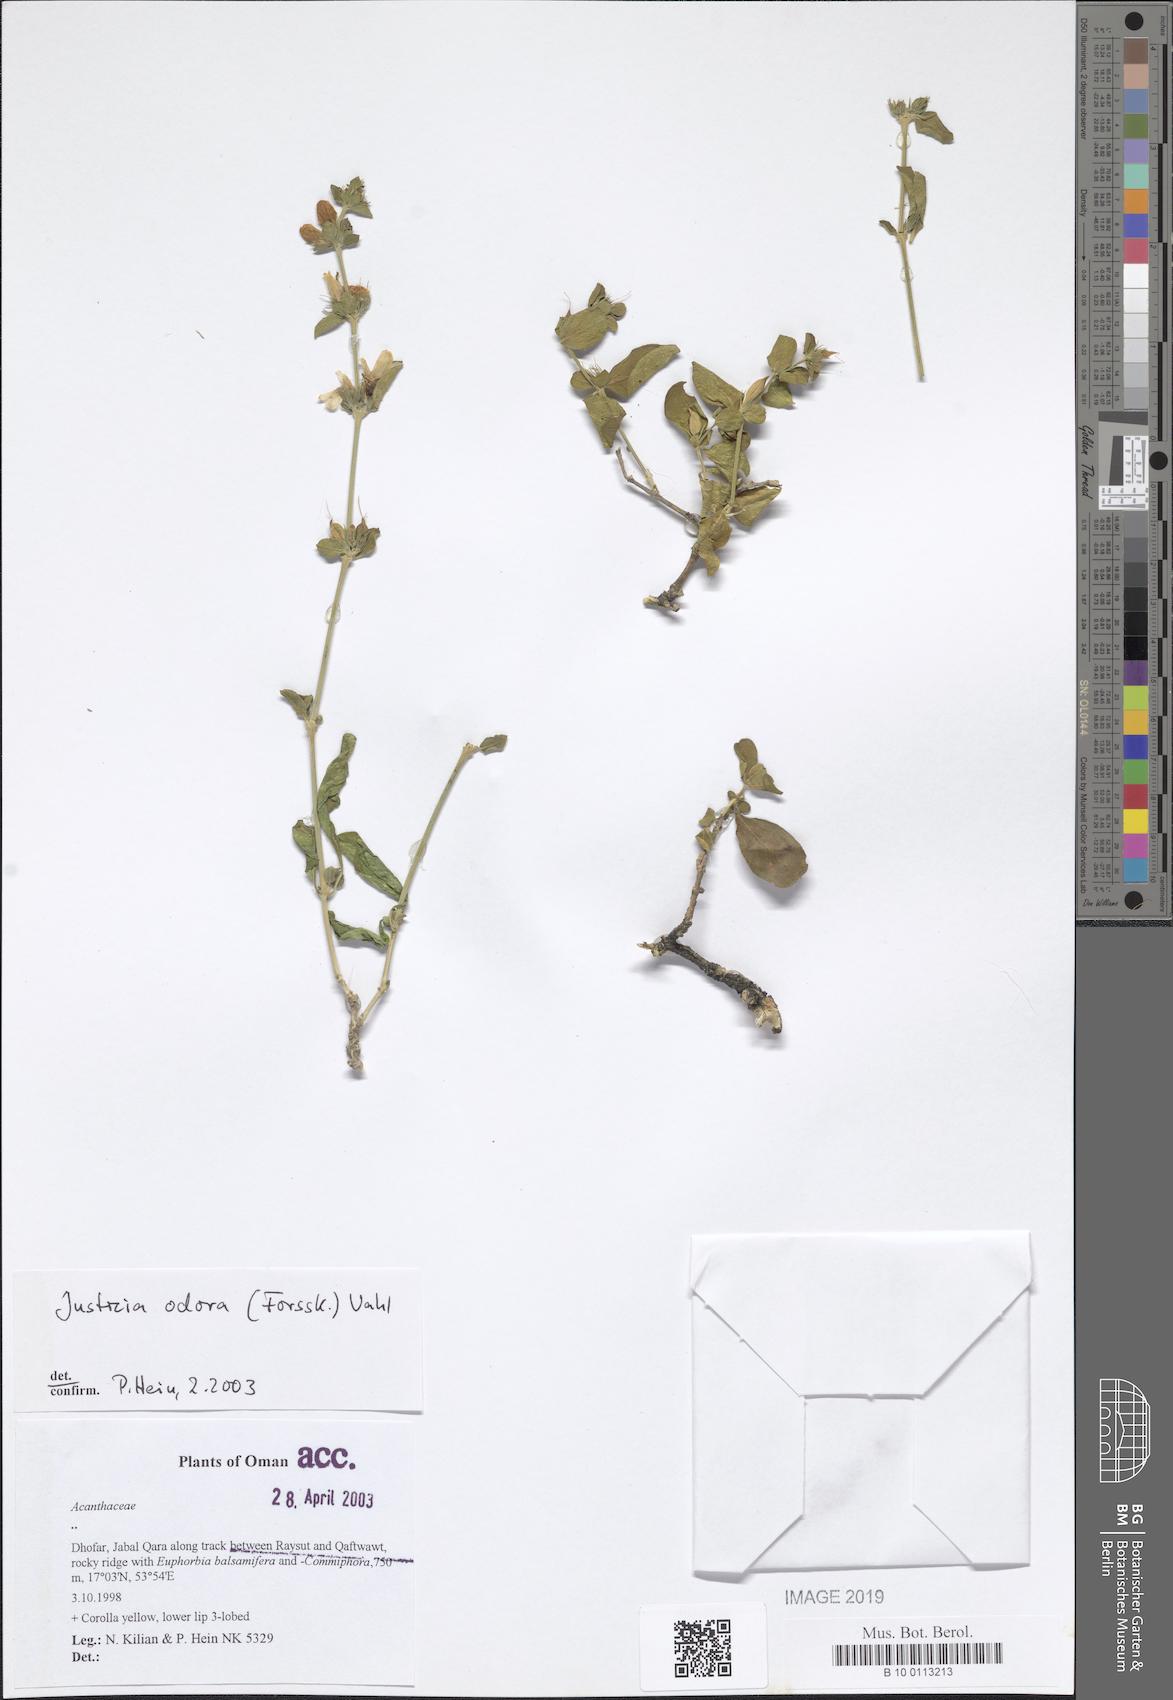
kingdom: Plantae
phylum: Tracheophyta
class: Magnoliopsida
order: Lamiales
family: Acanthaceae
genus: Justicia
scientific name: Justicia odora
